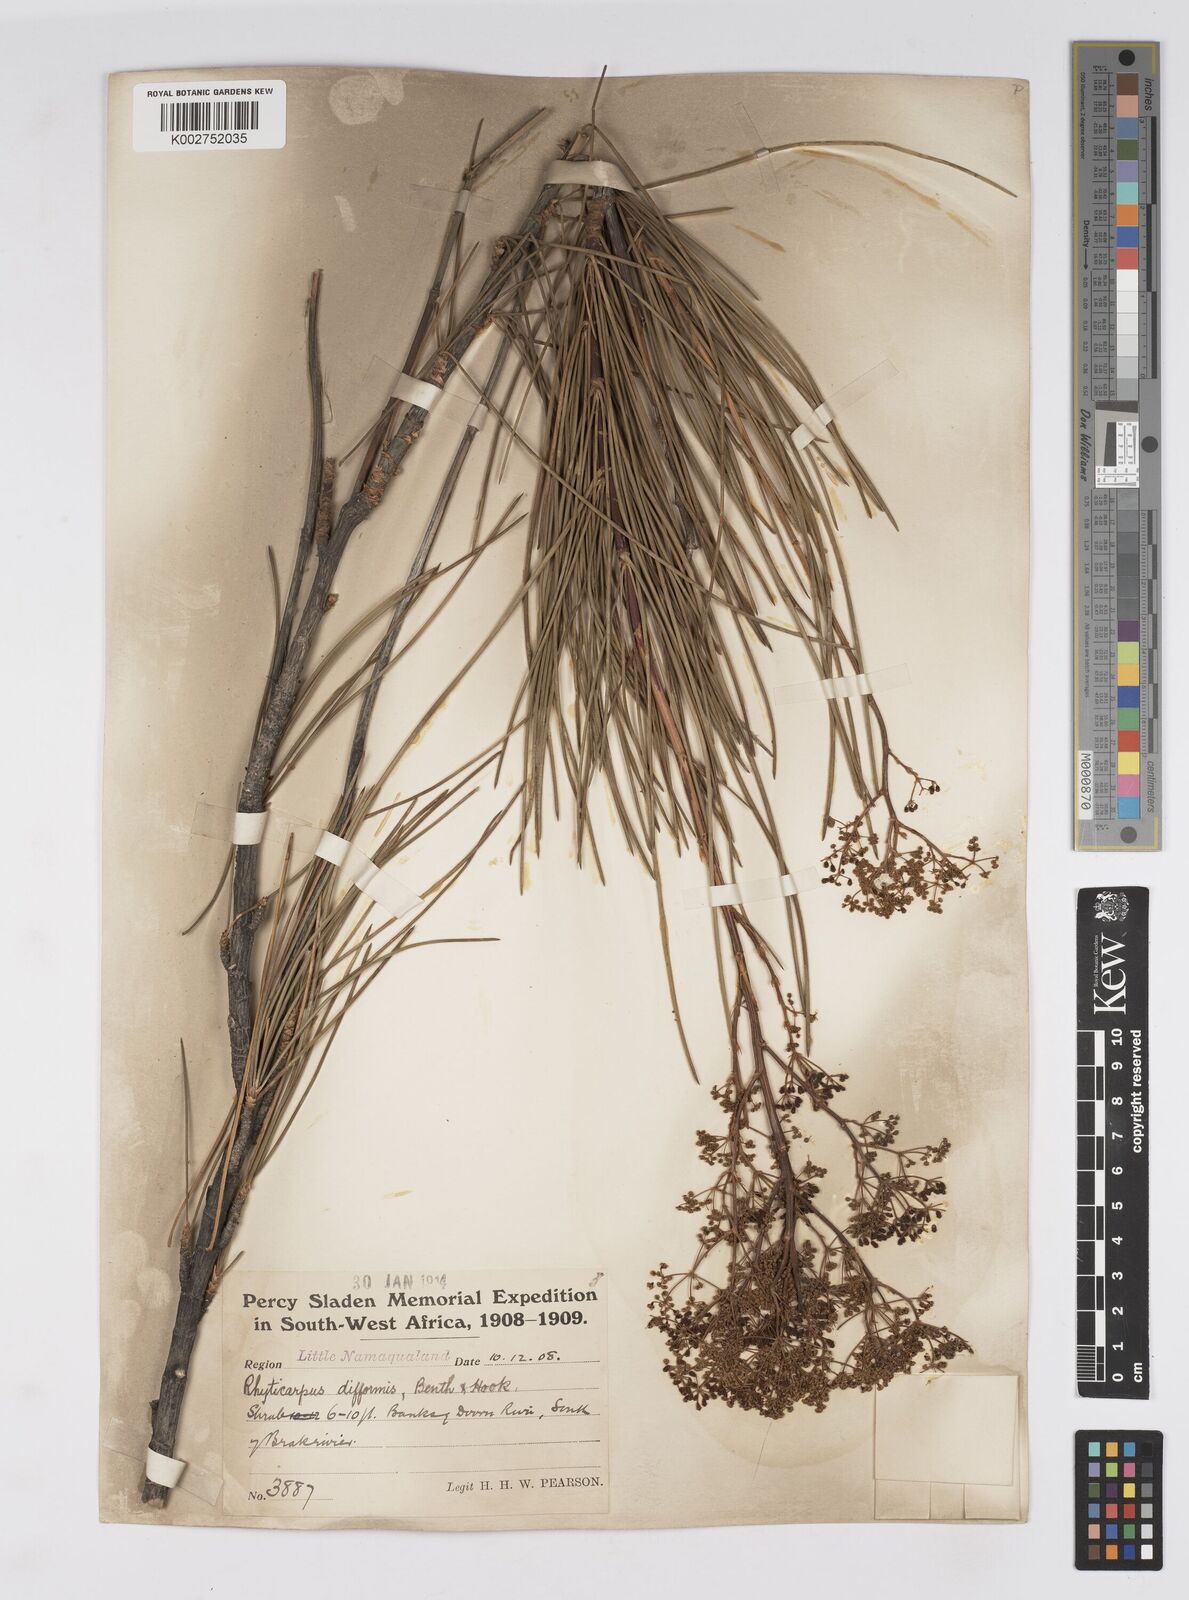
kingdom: Plantae
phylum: Tracheophyta
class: Magnoliopsida
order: Apiales
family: Apiaceae
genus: Anginon
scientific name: Anginon difforme
